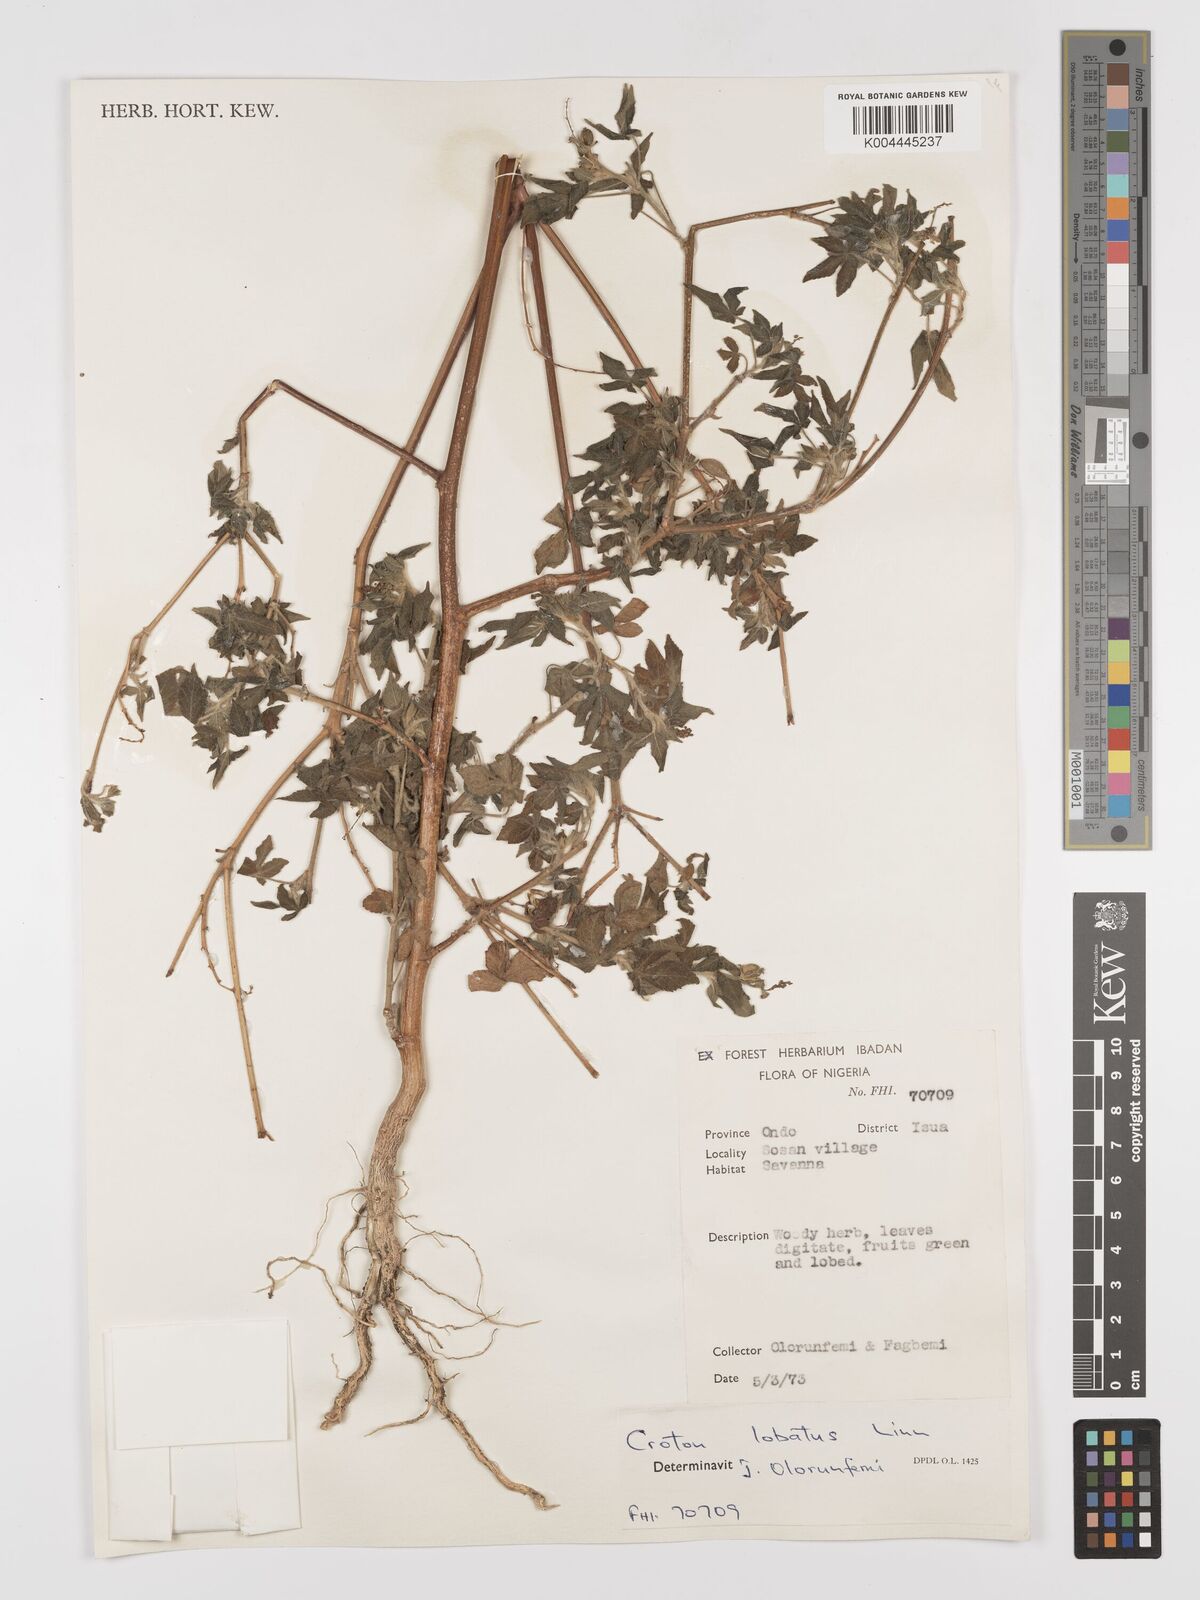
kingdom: Plantae
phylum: Tracheophyta
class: Magnoliopsida
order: Malpighiales
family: Euphorbiaceae
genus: Astraea
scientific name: Astraea lobata
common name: Lobed croton
